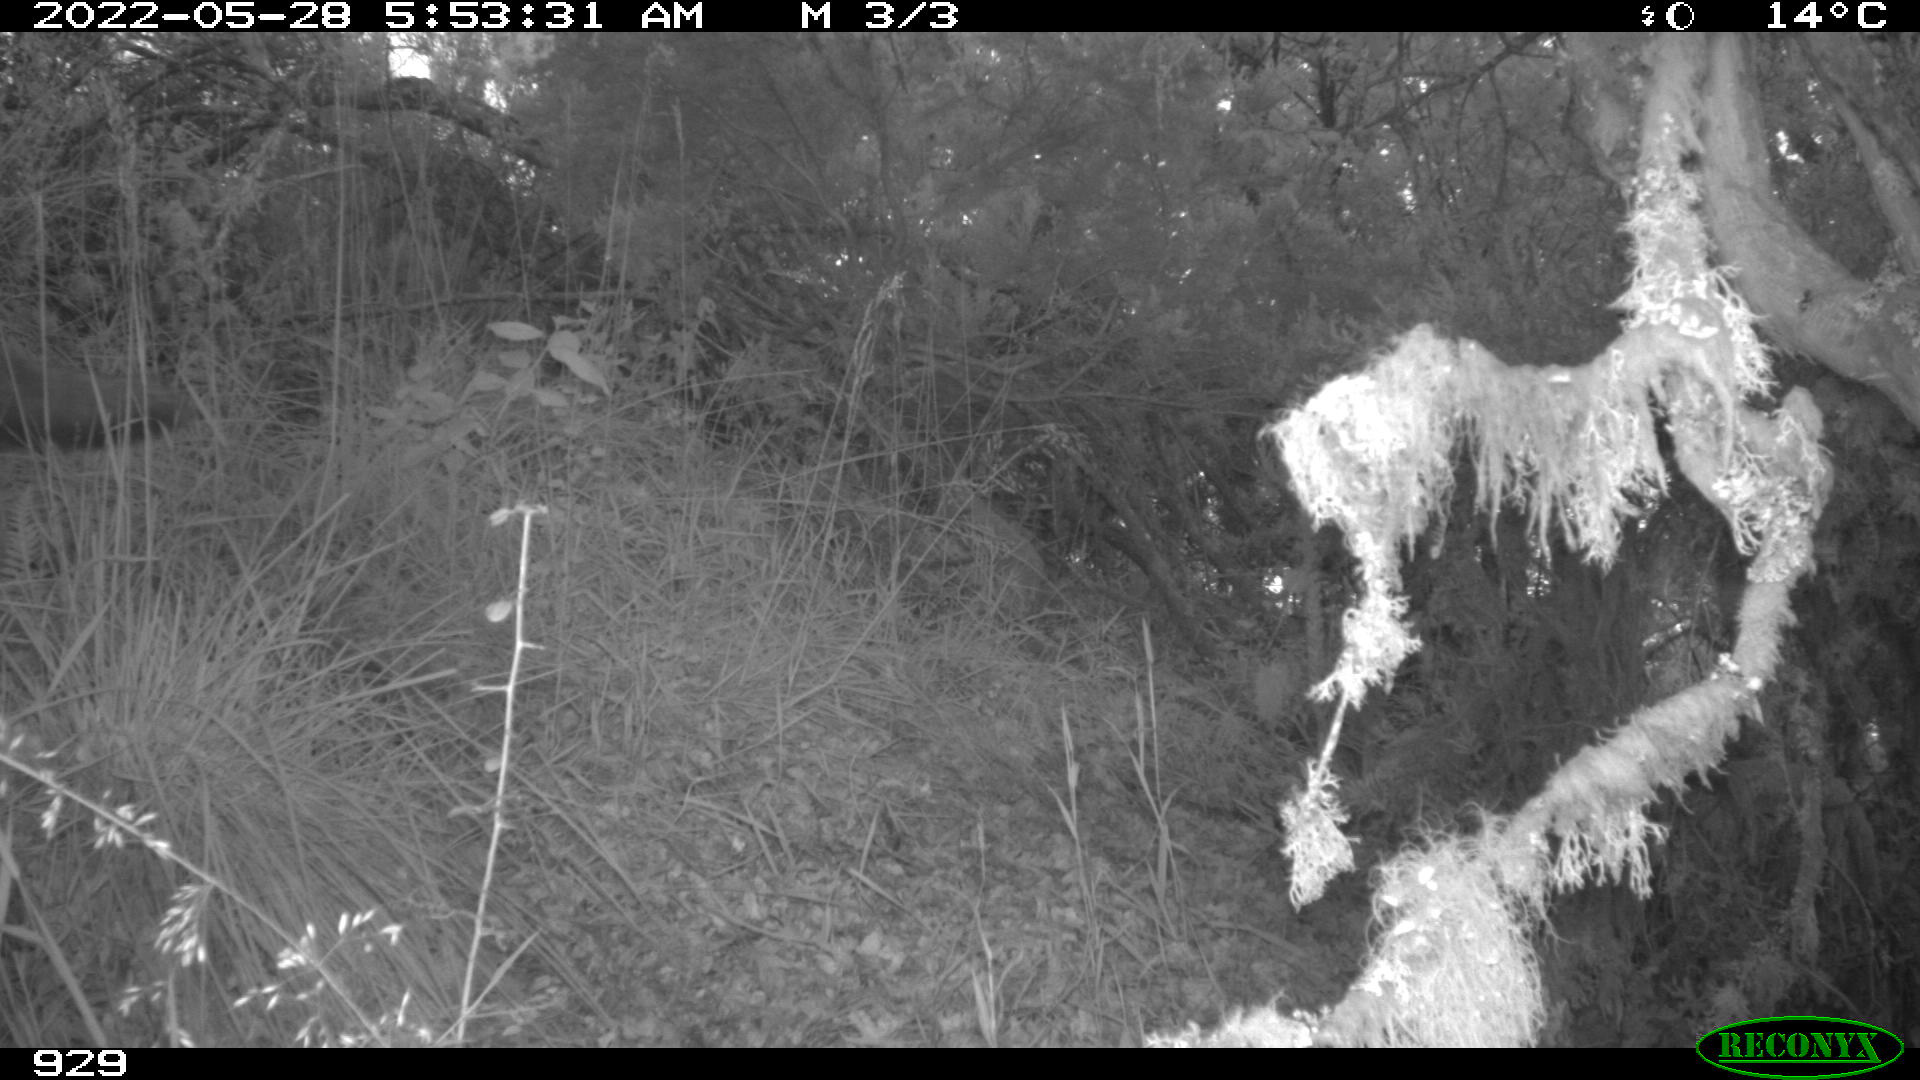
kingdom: Animalia
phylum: Chordata
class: Mammalia
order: Carnivora
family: Canidae
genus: Vulpes
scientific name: Vulpes vulpes
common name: Red fox
